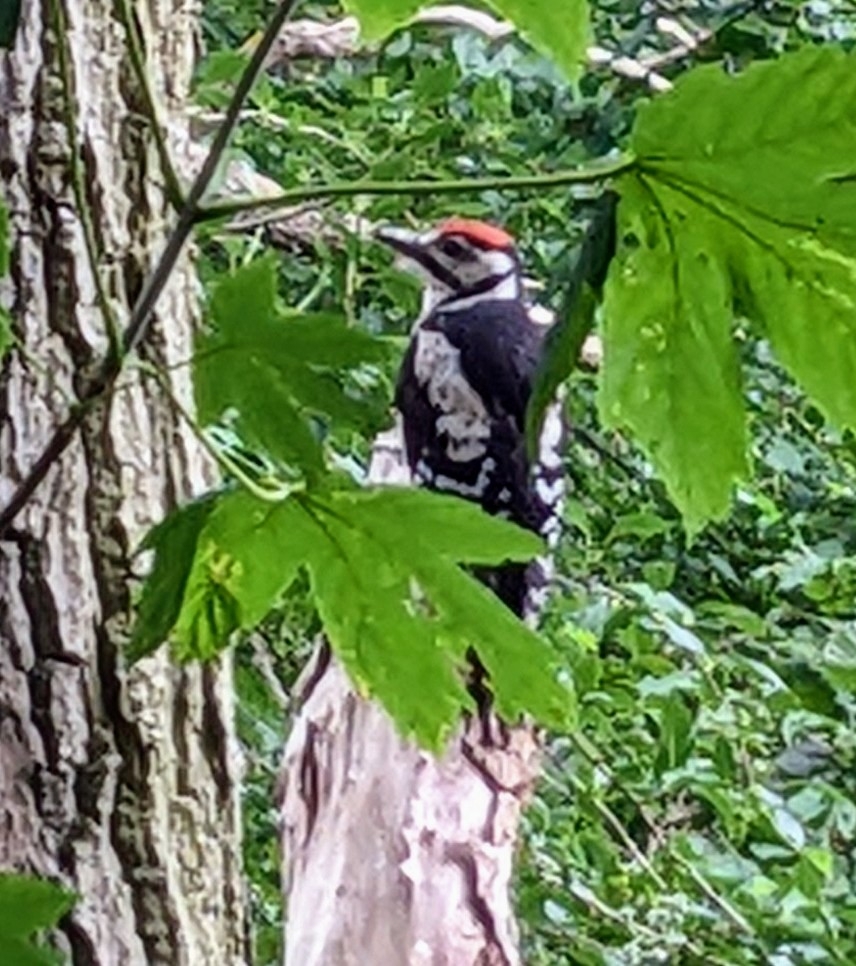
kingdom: Animalia
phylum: Chordata
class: Aves
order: Piciformes
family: Picidae
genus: Dendrocopos
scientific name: Dendrocopos major
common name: Stor flagspætte
